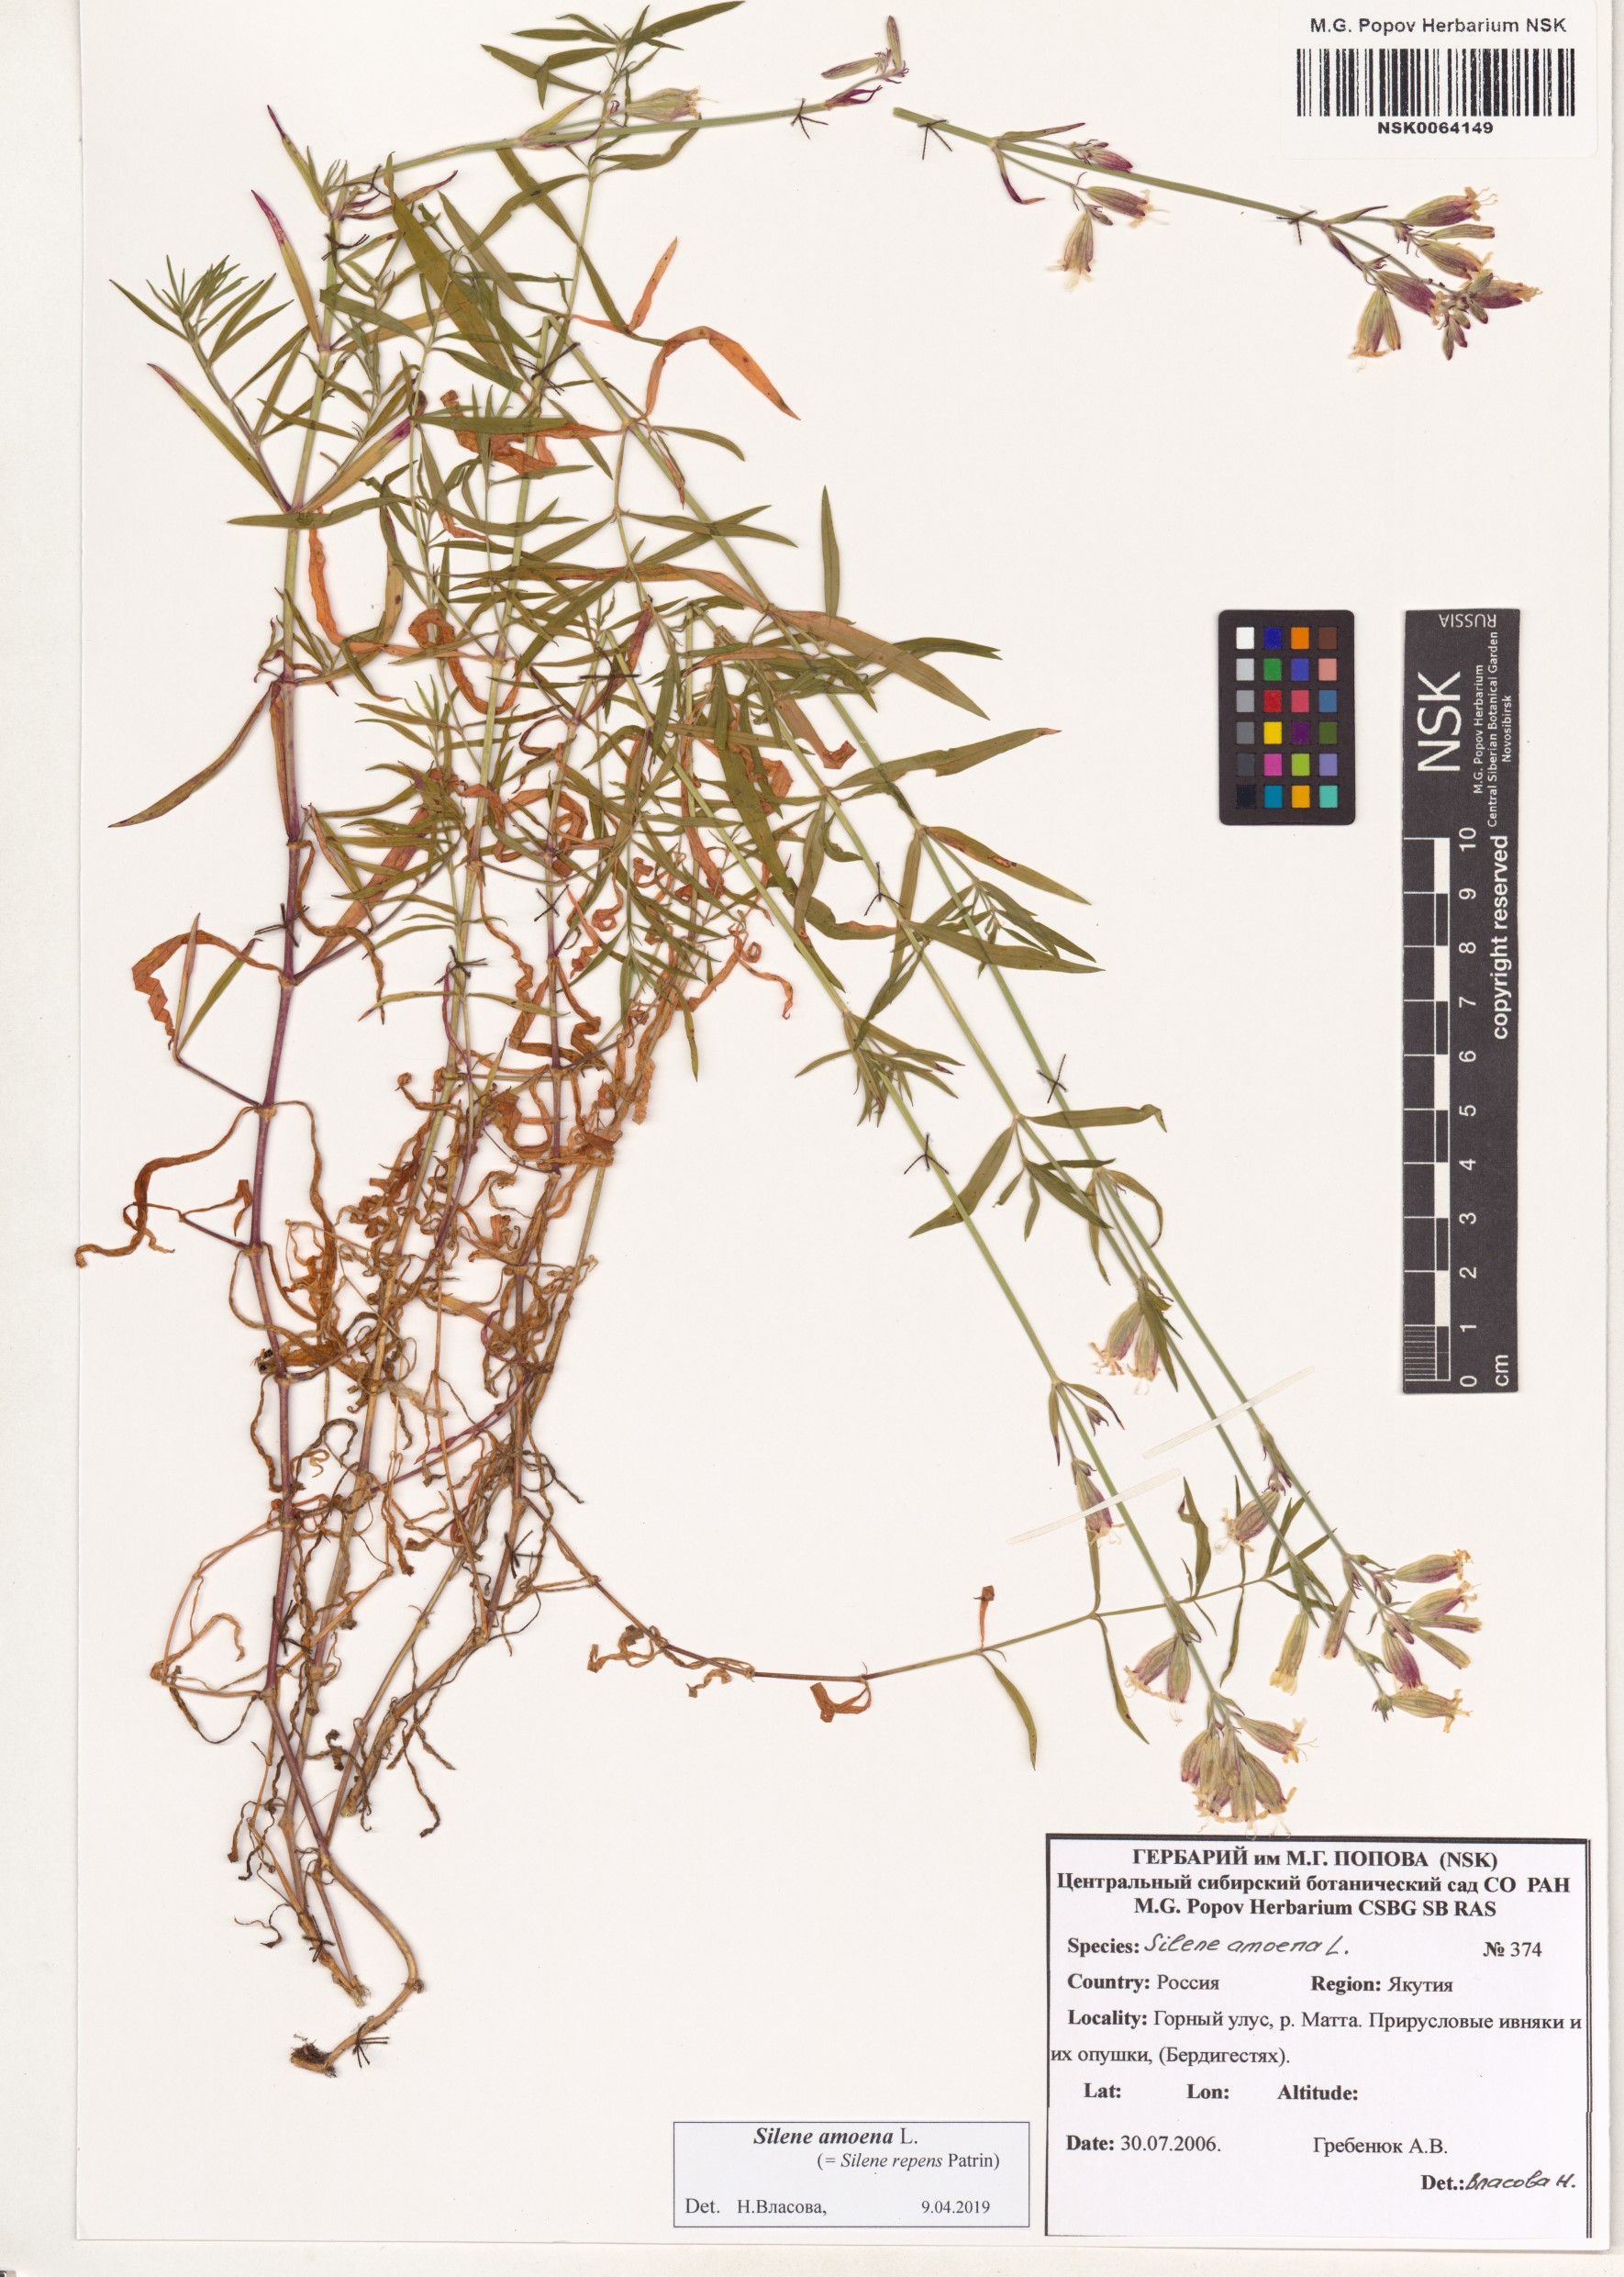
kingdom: Plantae
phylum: Tracheophyta
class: Magnoliopsida
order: Caryophyllales
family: Caryophyllaceae
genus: Silene
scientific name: Silene amoena
